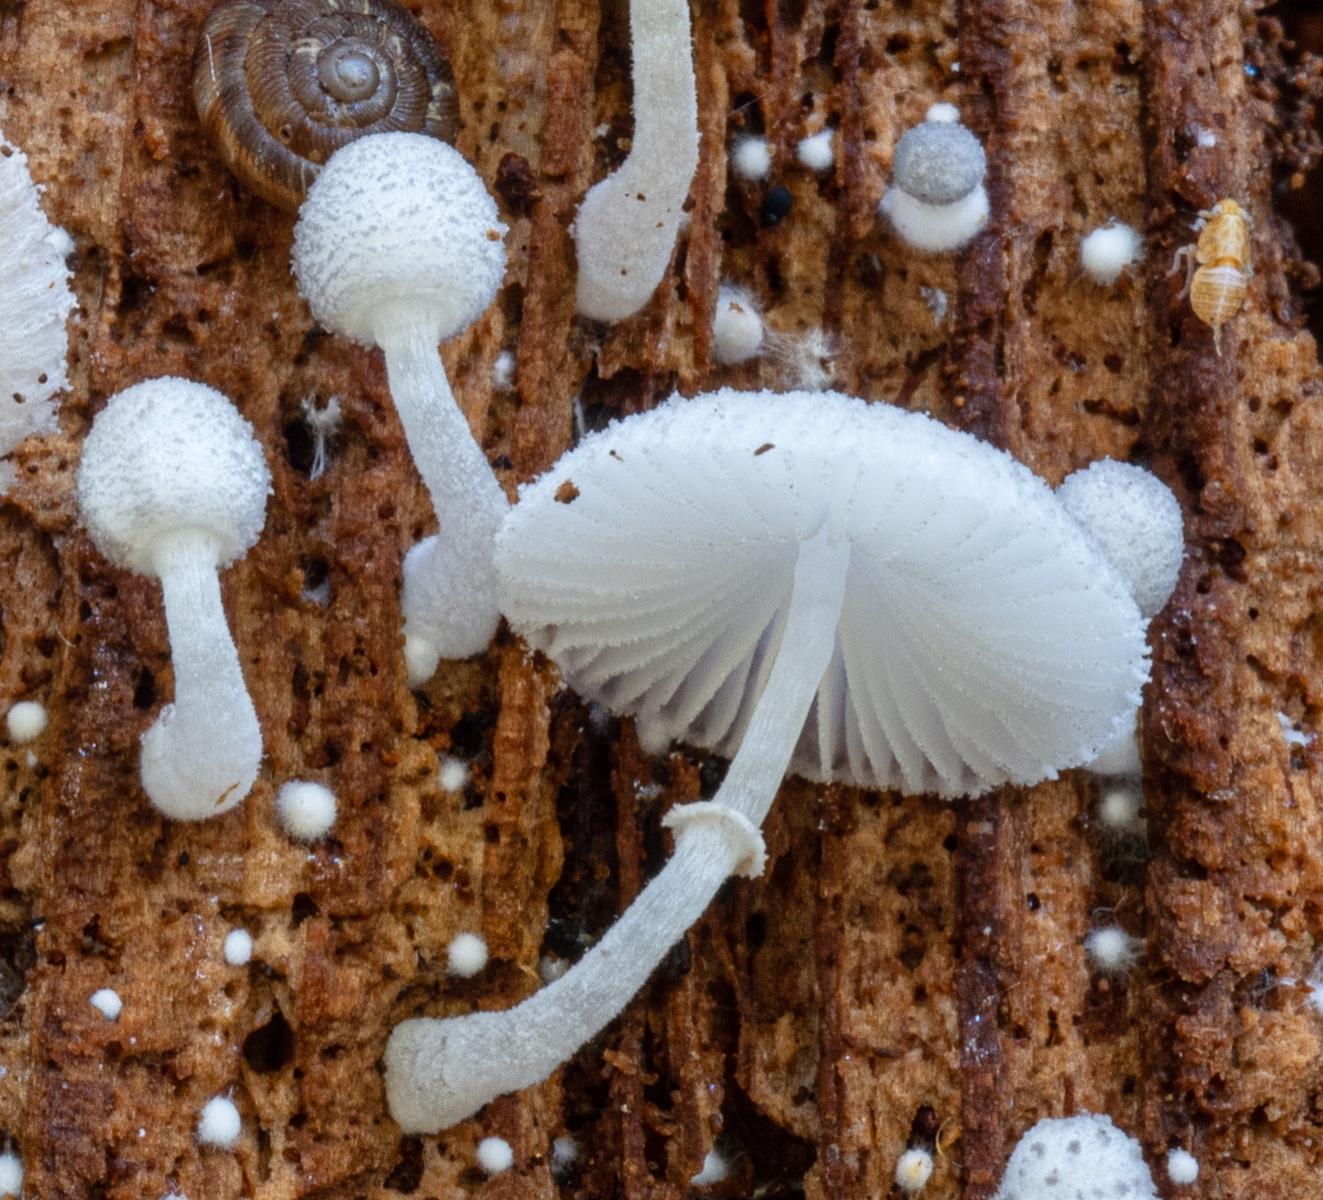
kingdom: Fungi
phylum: Basidiomycota
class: Agaricomycetes
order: Agaricales
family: Agaricaceae
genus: Leucocoprinus
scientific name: Leucocoprinus cygneus
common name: finpudret silkehat
